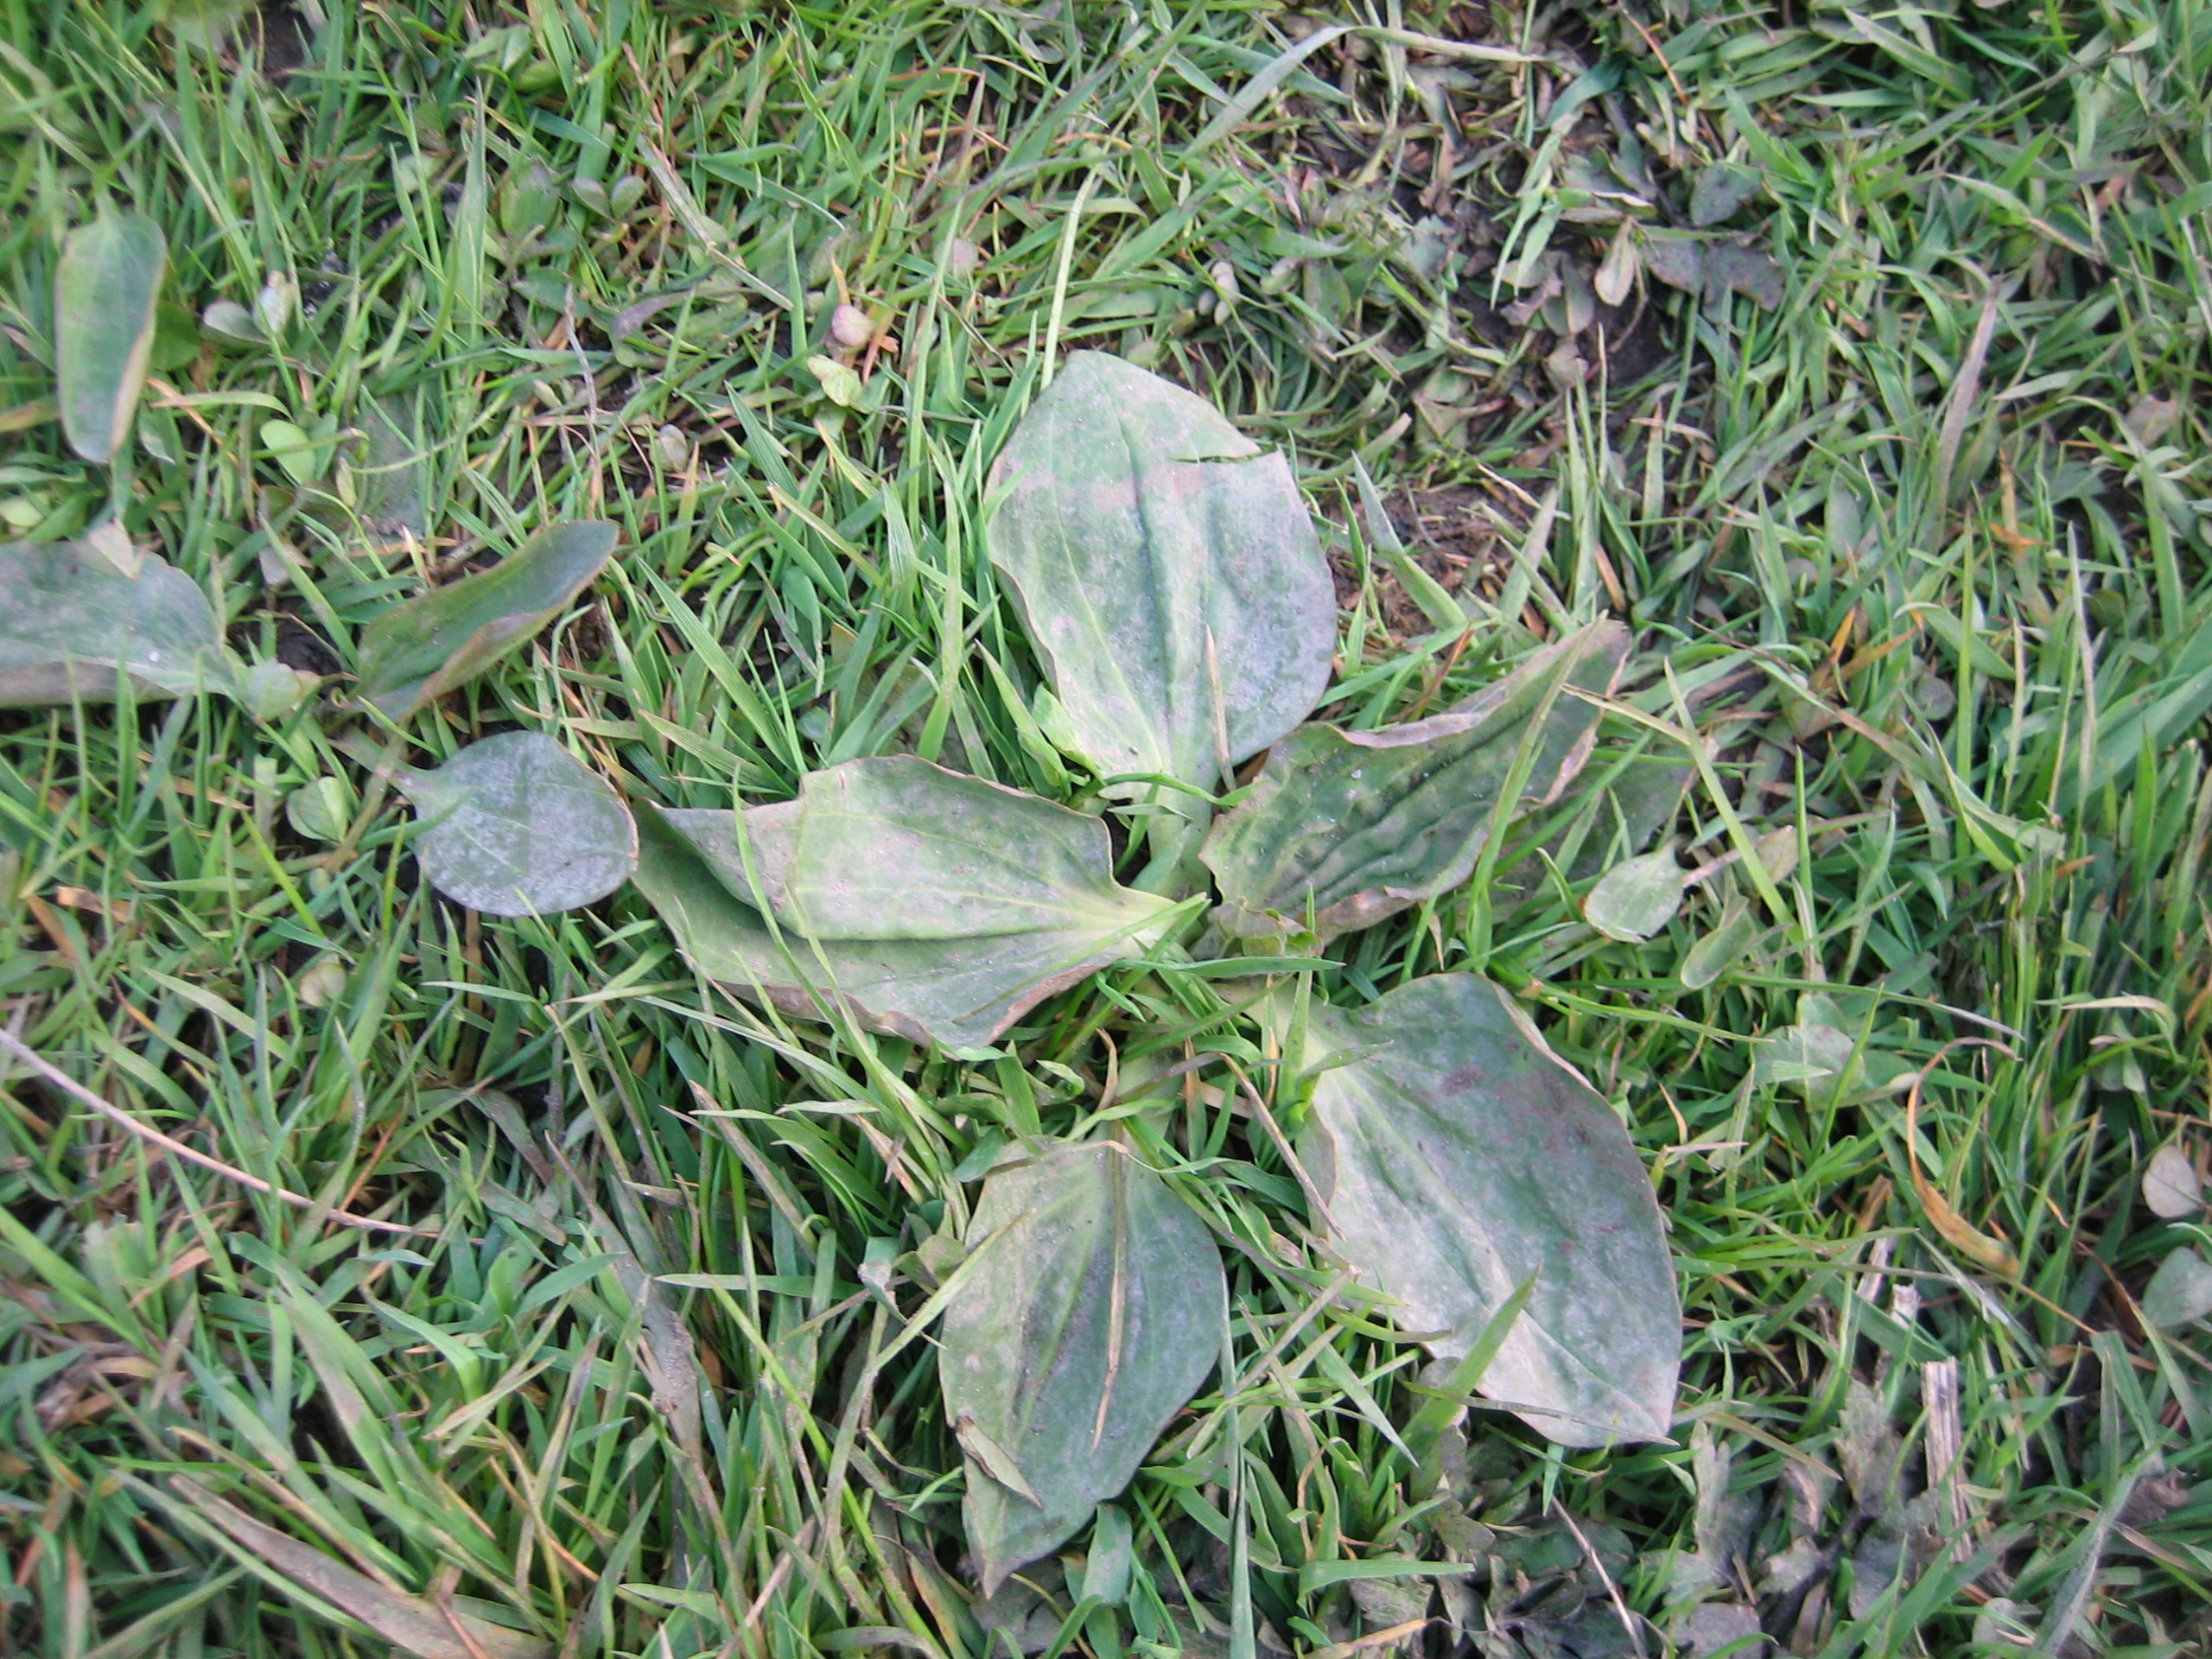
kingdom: Plantae
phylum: Tracheophyta
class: Magnoliopsida
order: Lamiales
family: Plantaginaceae
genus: Plantago
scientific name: Plantago major
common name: Glat vejbred
